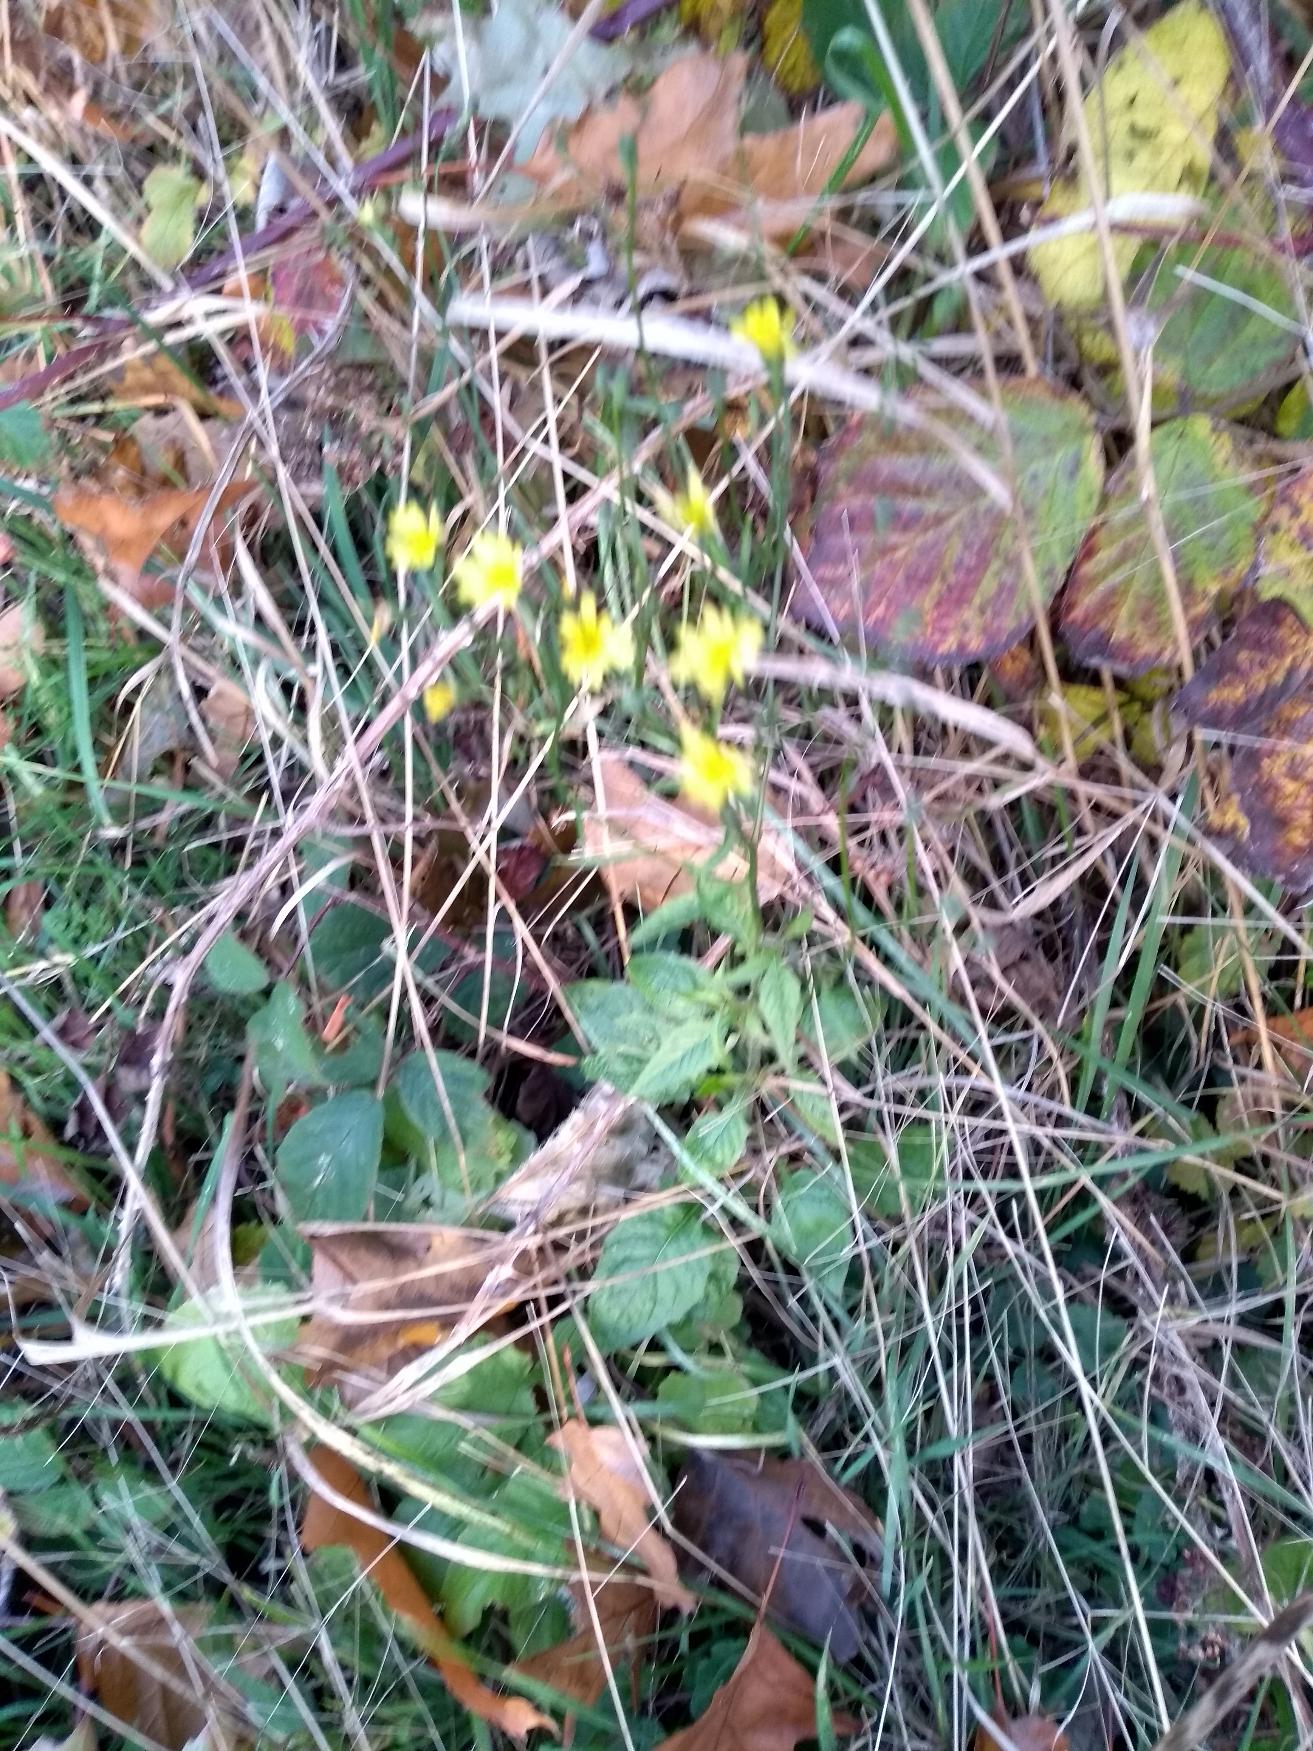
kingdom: Plantae
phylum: Tracheophyta
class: Magnoliopsida
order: Asterales
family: Asteraceae
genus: Lapsana
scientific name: Lapsana communis
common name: Haremad
